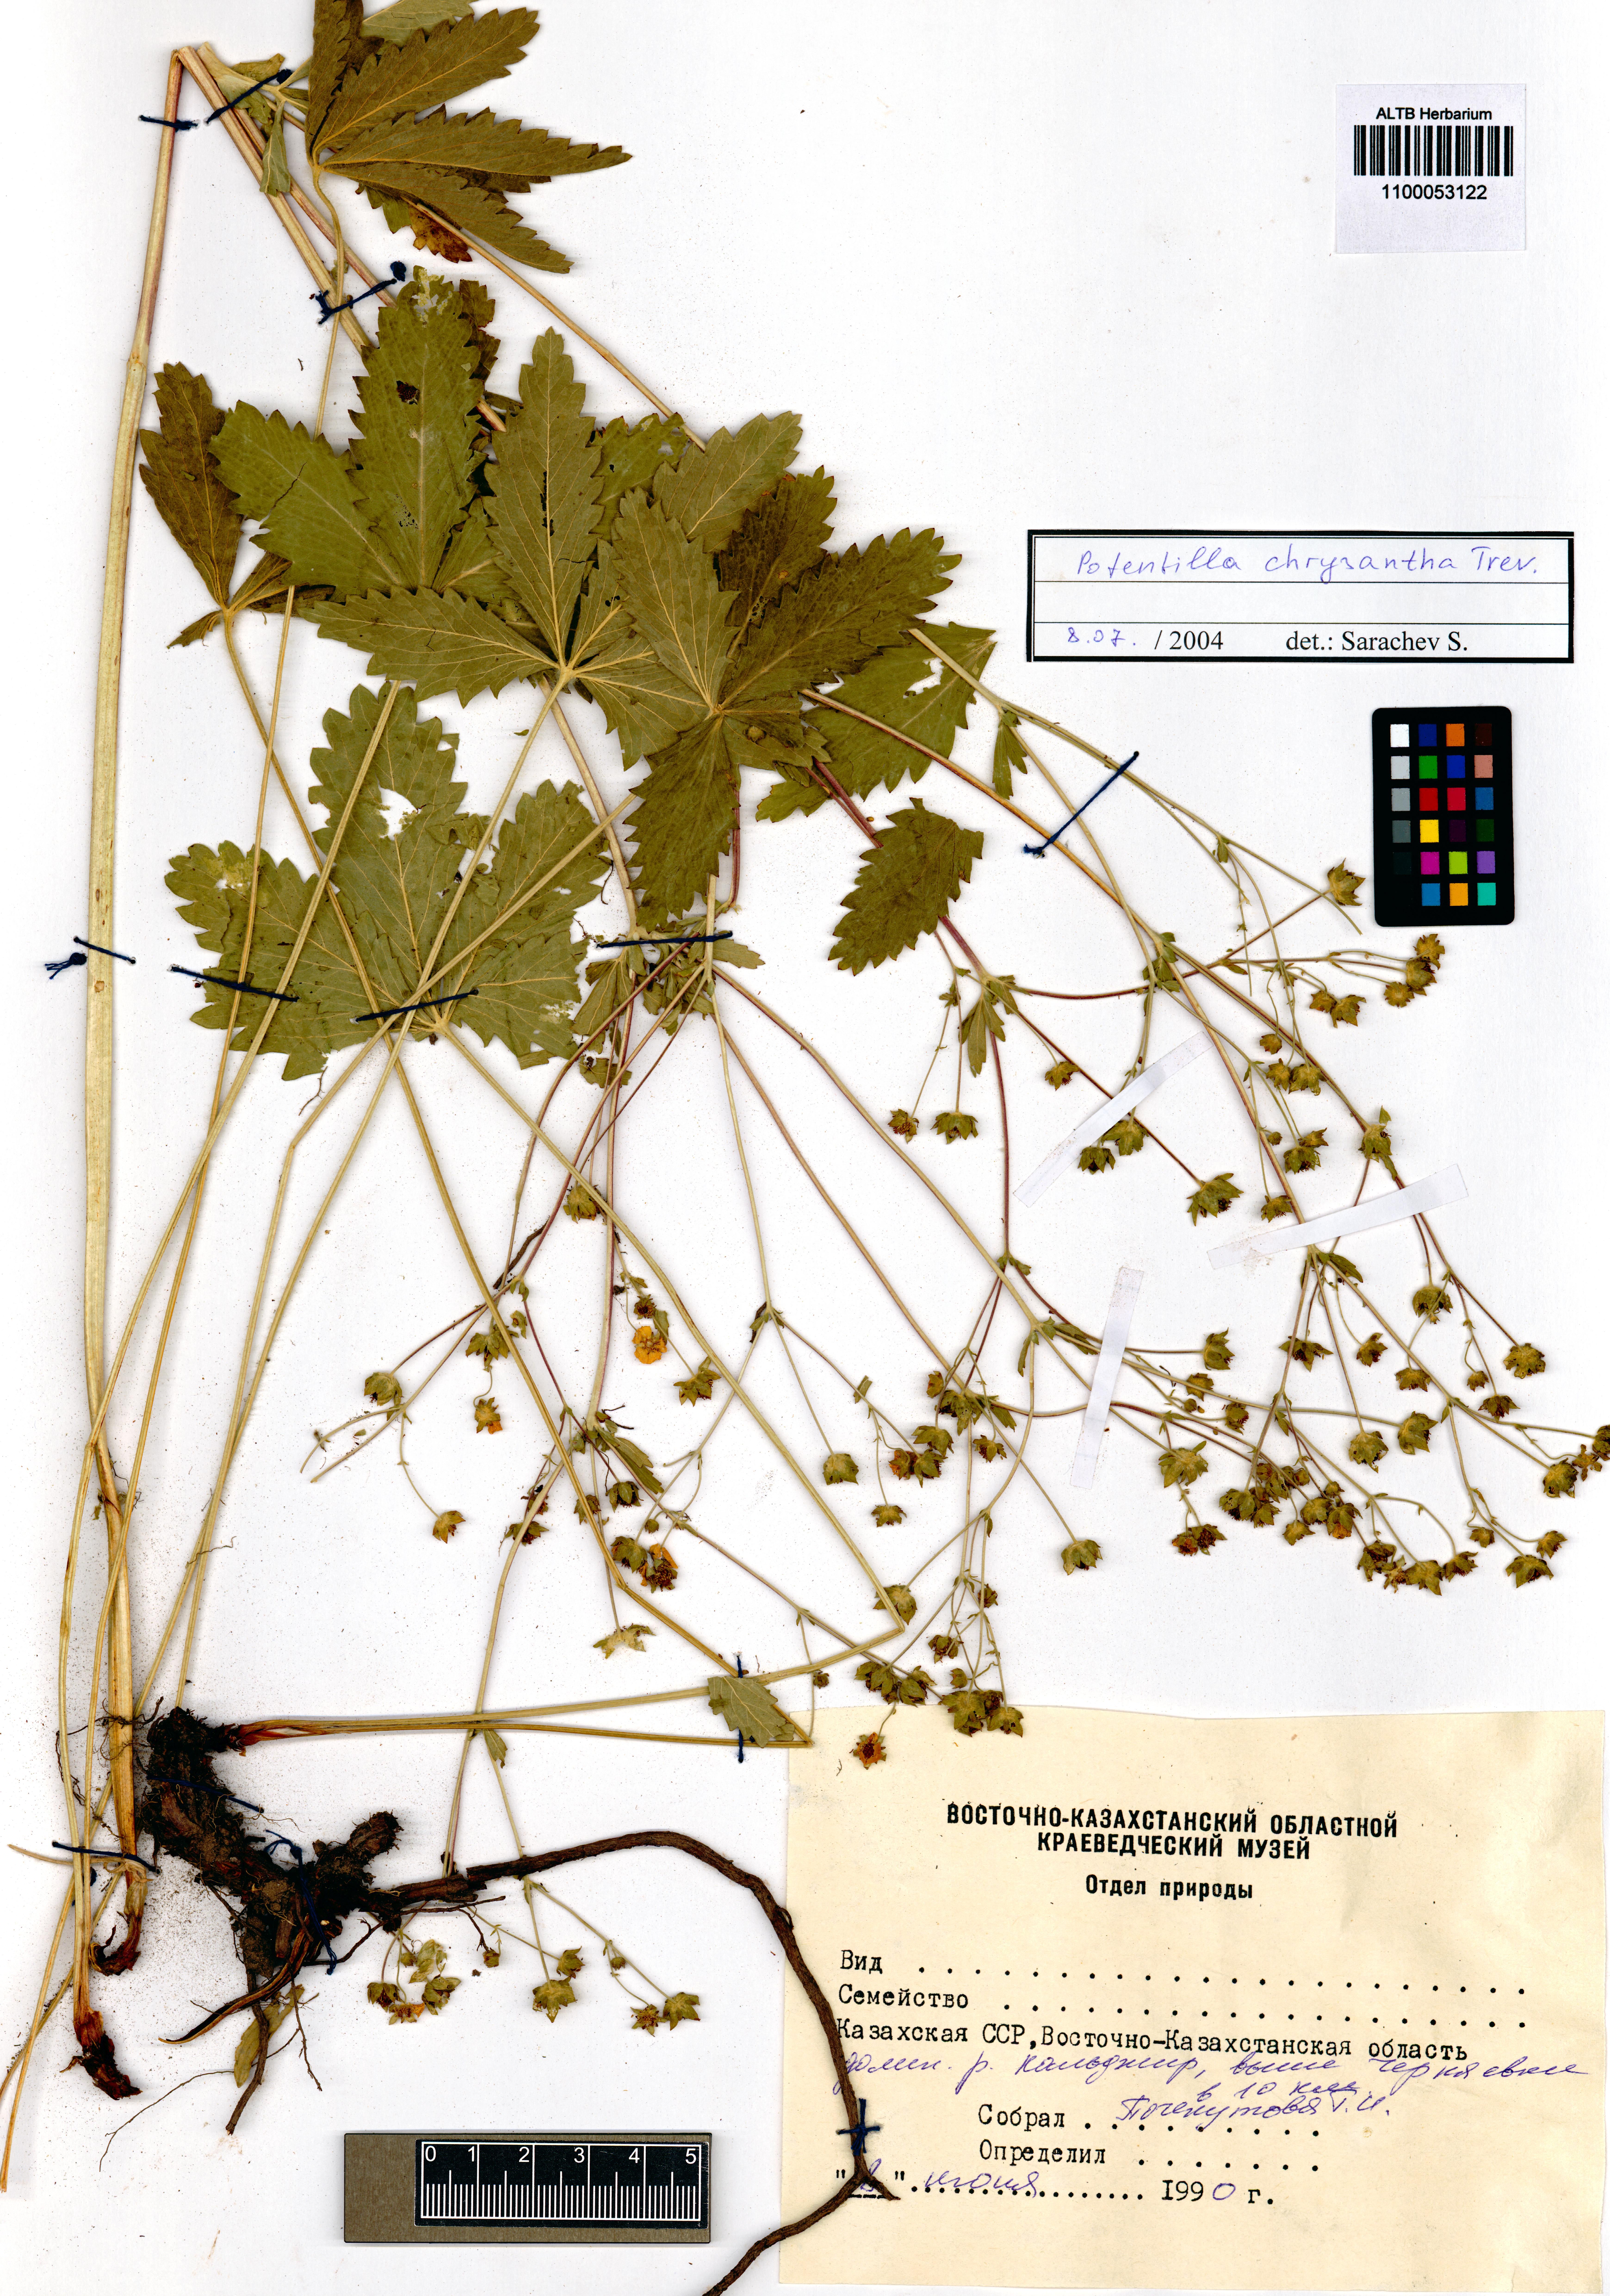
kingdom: Plantae
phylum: Tracheophyta
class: Magnoliopsida
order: Rosales
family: Rosaceae
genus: Potentilla
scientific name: Potentilla chrysantha
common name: Thuringian cinquefoil
